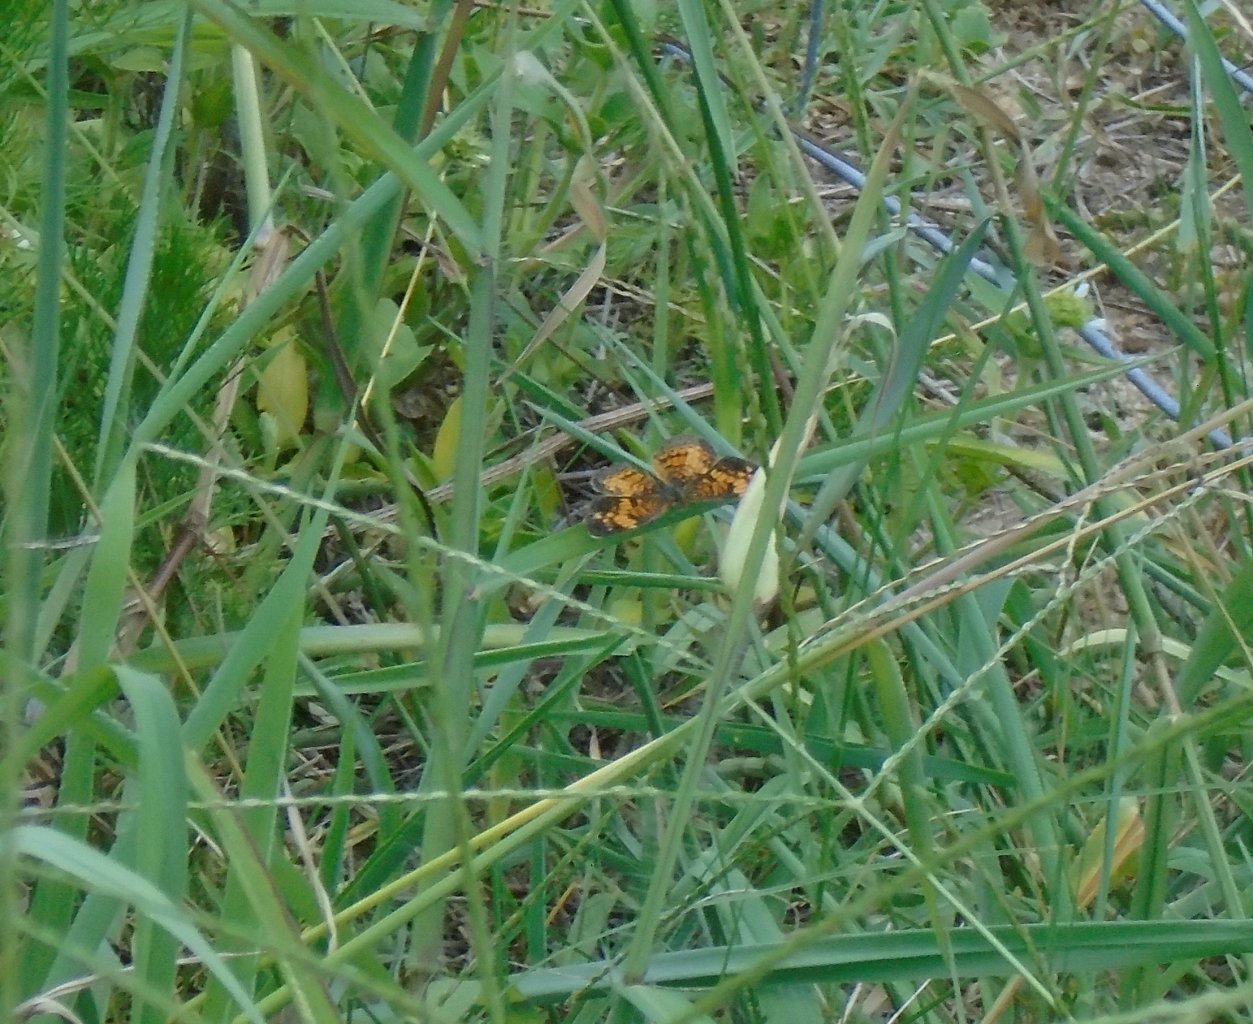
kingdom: Animalia
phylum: Arthropoda
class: Insecta
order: Lepidoptera
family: Nymphalidae
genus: Phyciodes
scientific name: Phyciodes tharos
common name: Pearl Crescent
